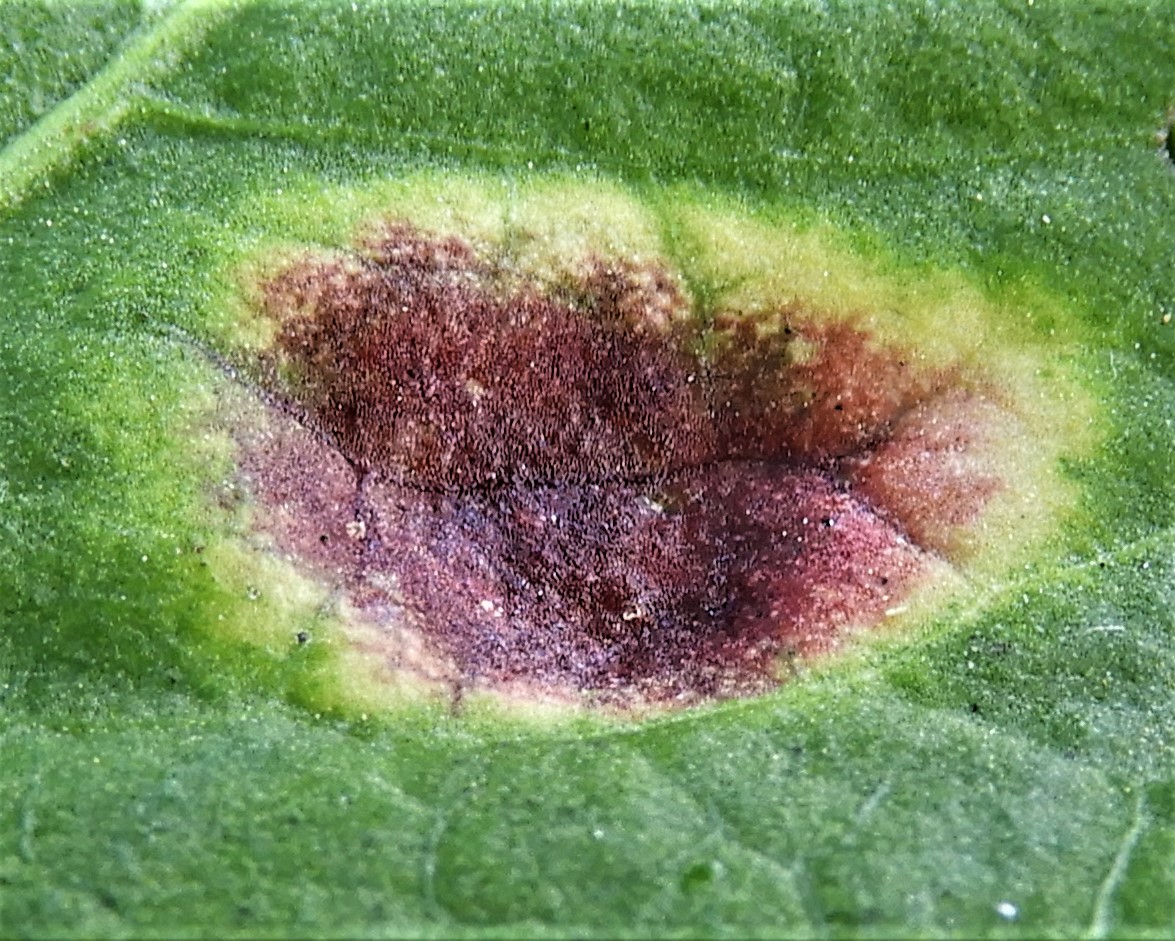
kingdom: Fungi
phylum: Basidiomycota
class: Pucciniomycetes
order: Pucciniales
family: Pucciniaceae
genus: Puccinia
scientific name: Puccinia phragmitis
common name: tagrør-tvecellerust
